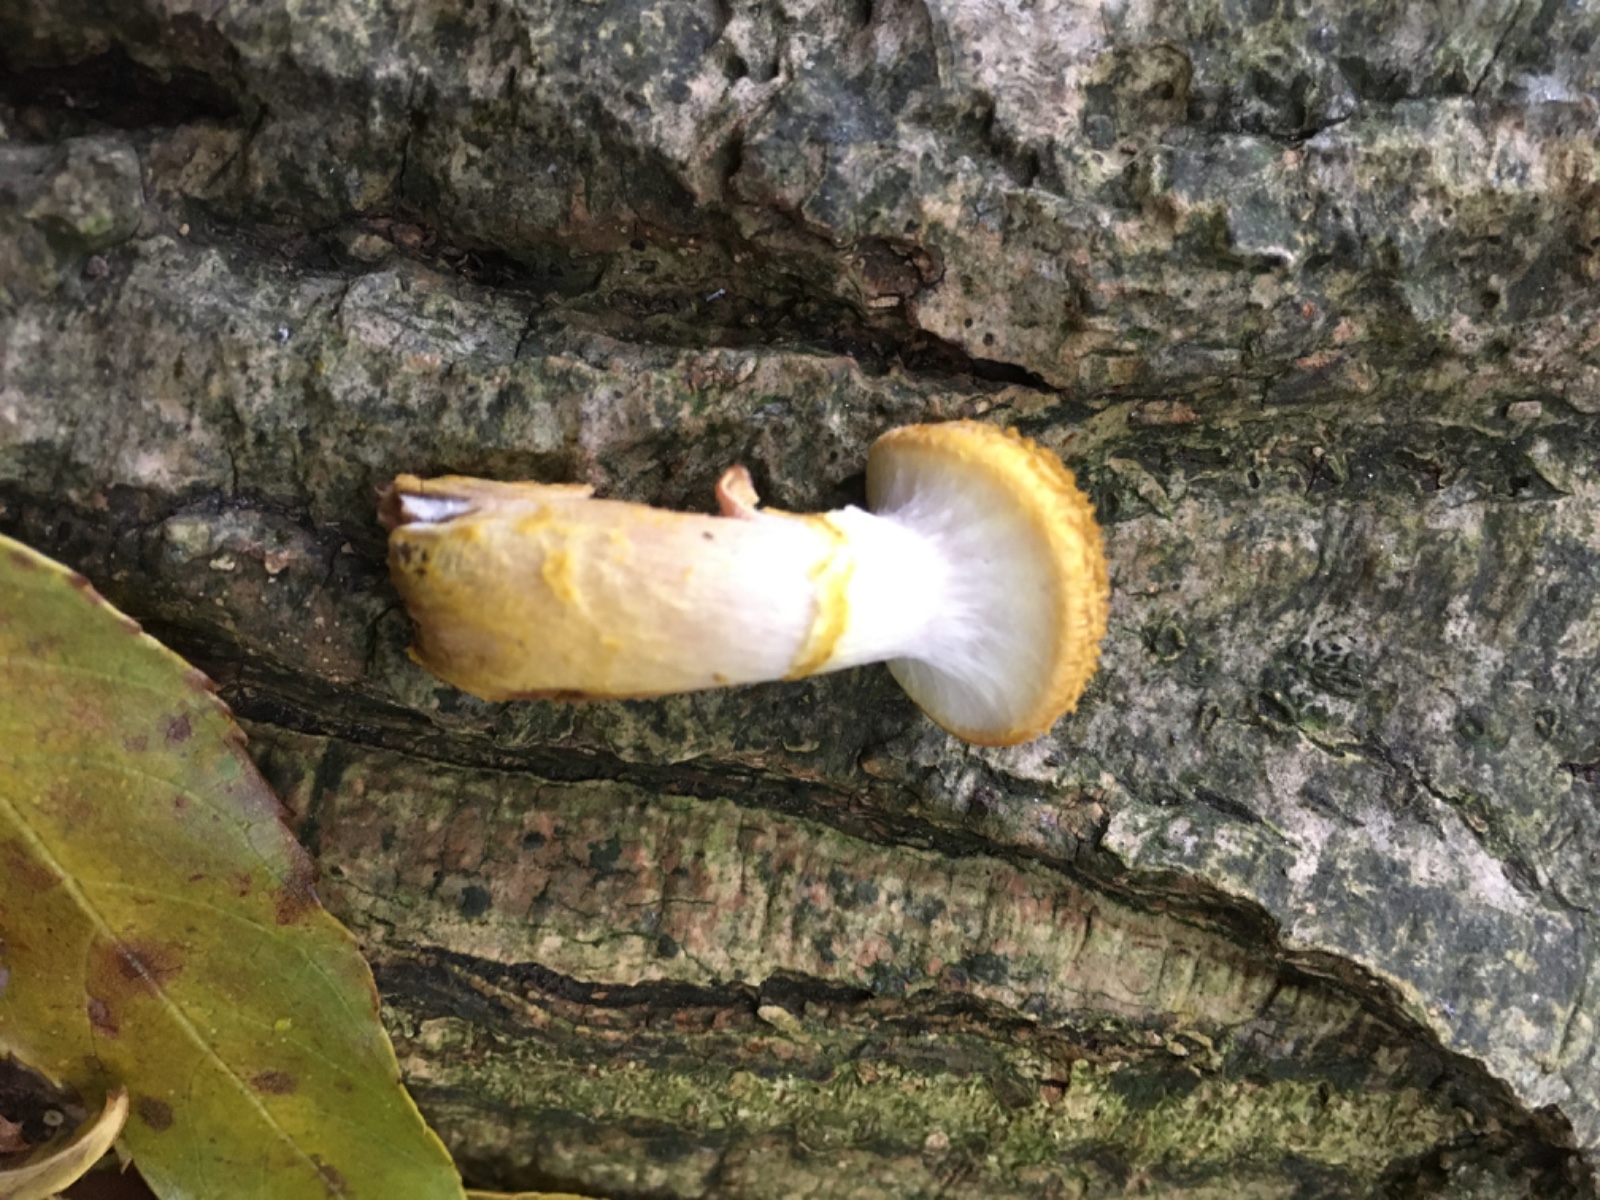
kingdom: Fungi
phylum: Basidiomycota
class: Agaricomycetes
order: Agaricales
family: Physalacriaceae
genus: Armillaria
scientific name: Armillaria lutea
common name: køllestokket honningsvamp
